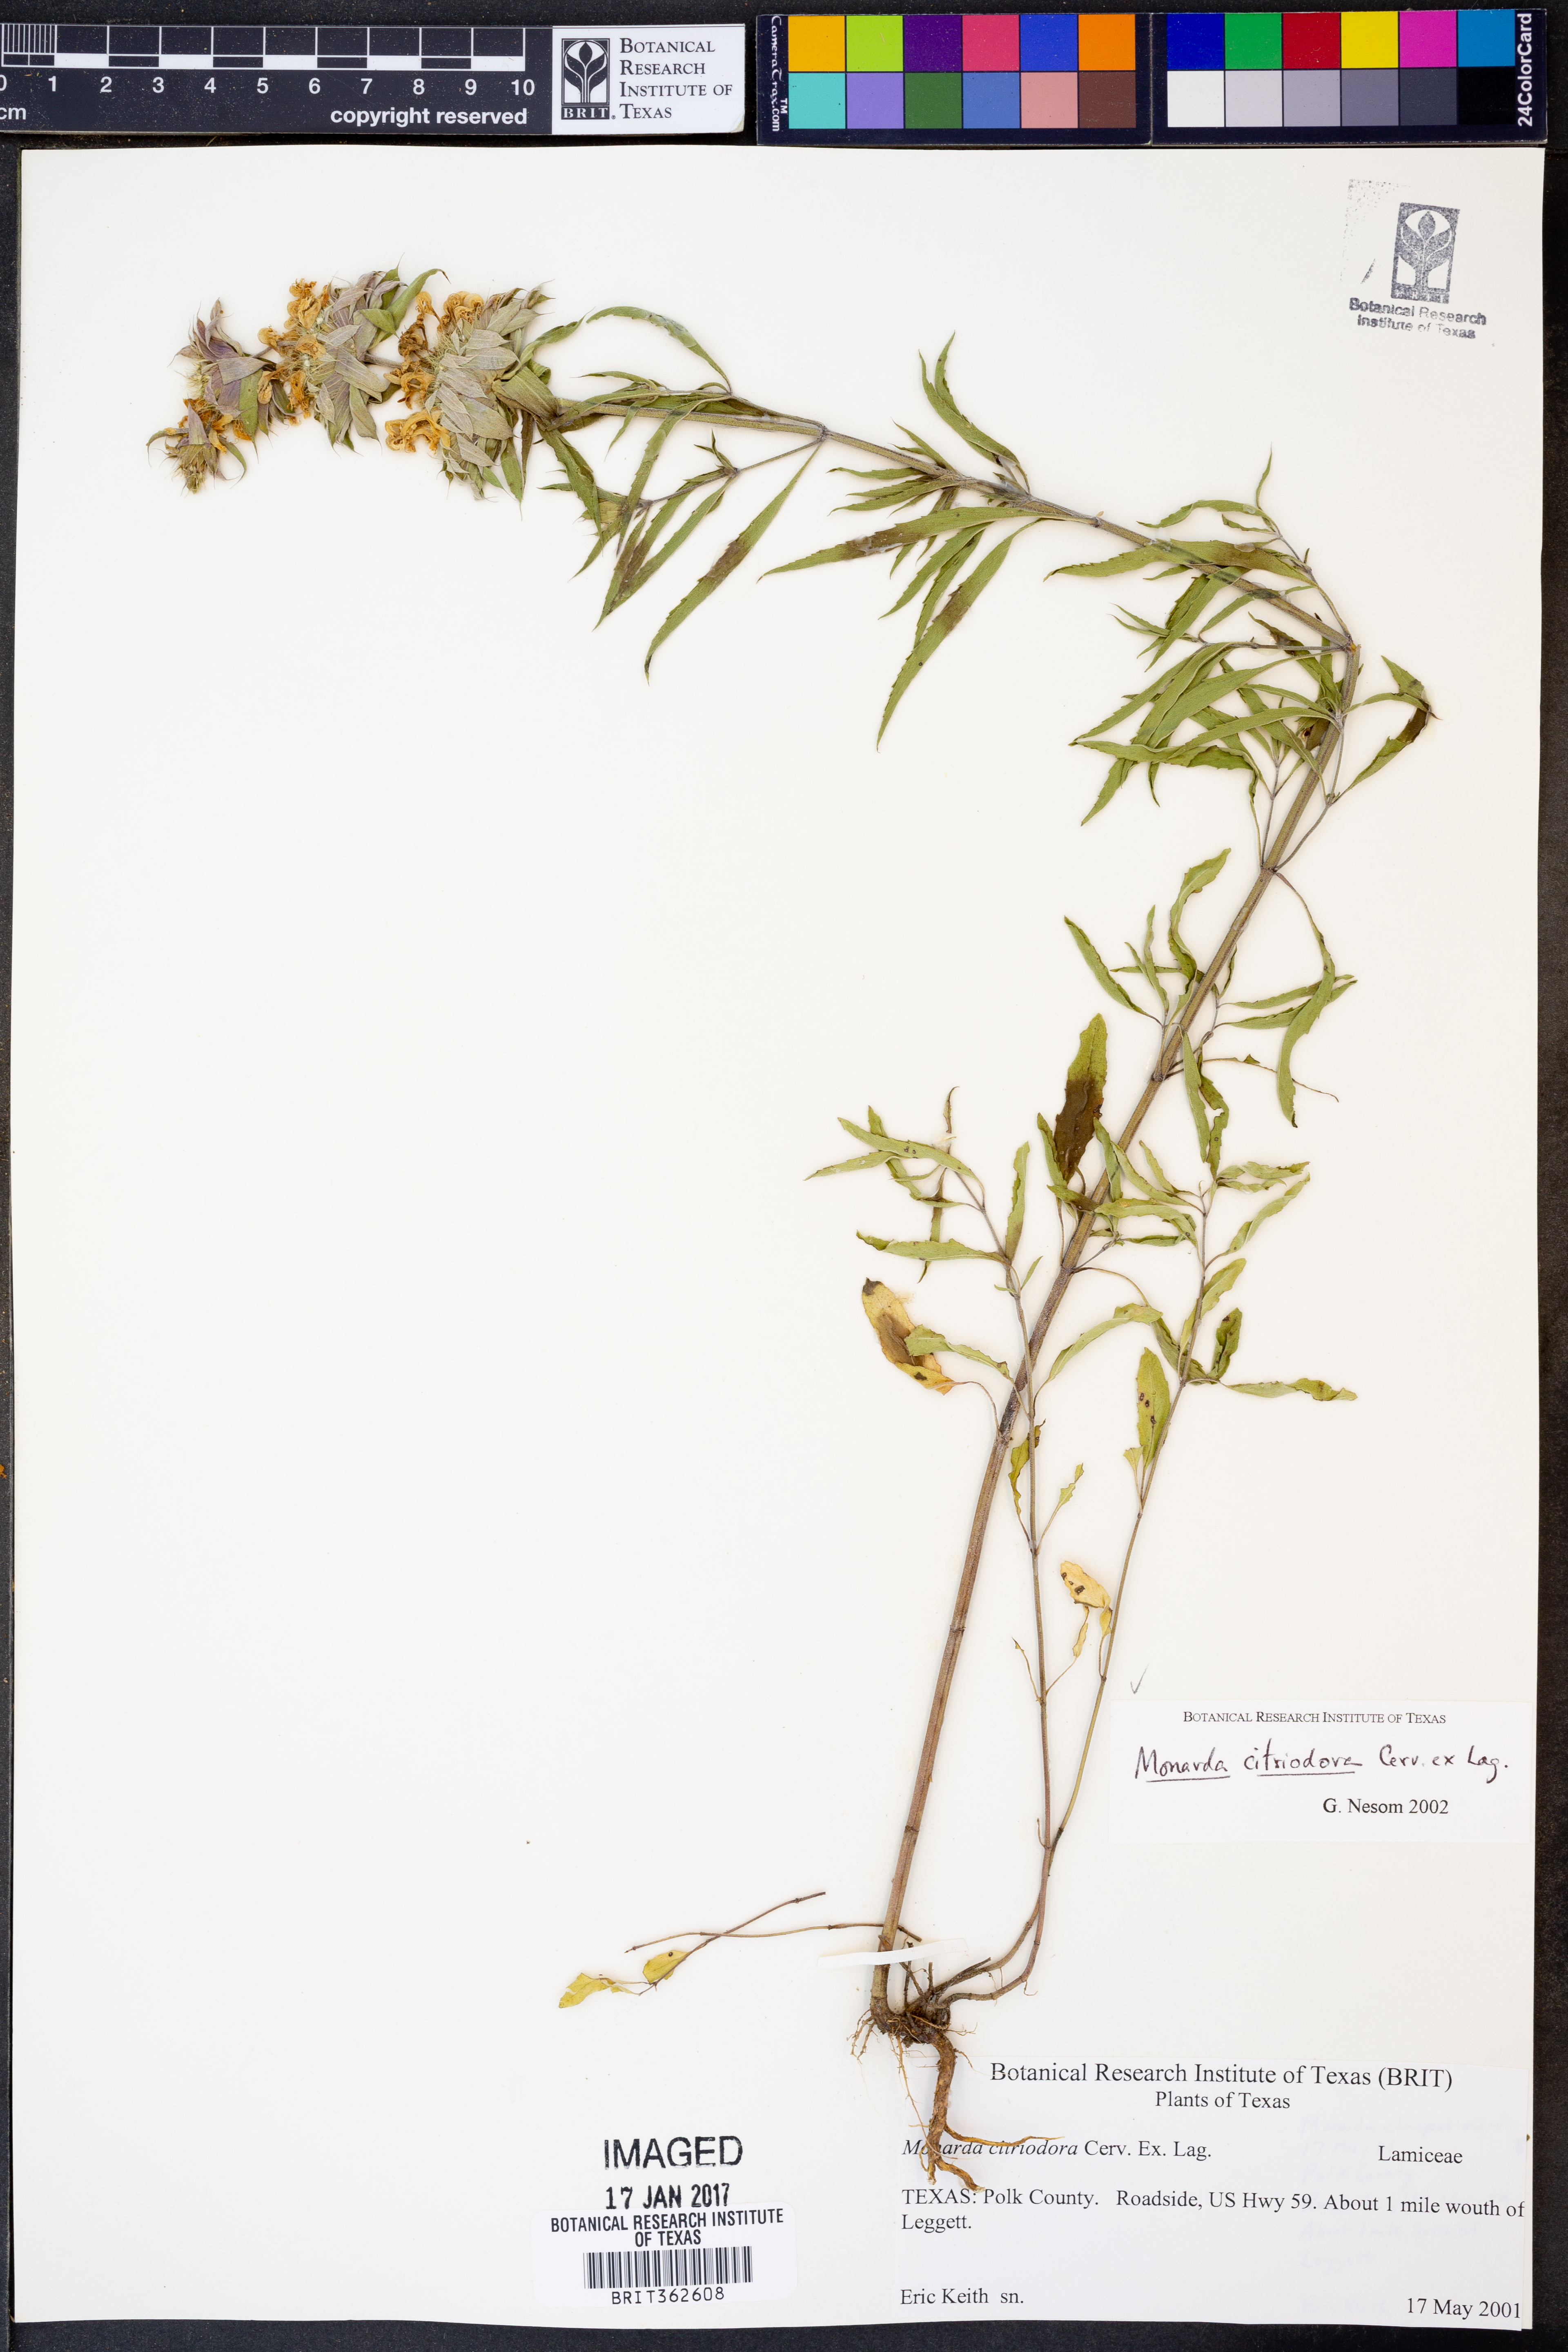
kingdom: Plantae
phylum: Tracheophyta
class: Magnoliopsida
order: Lamiales
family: Lamiaceae
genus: Monarda
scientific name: Monarda citriodora
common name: Lemon beebalm
